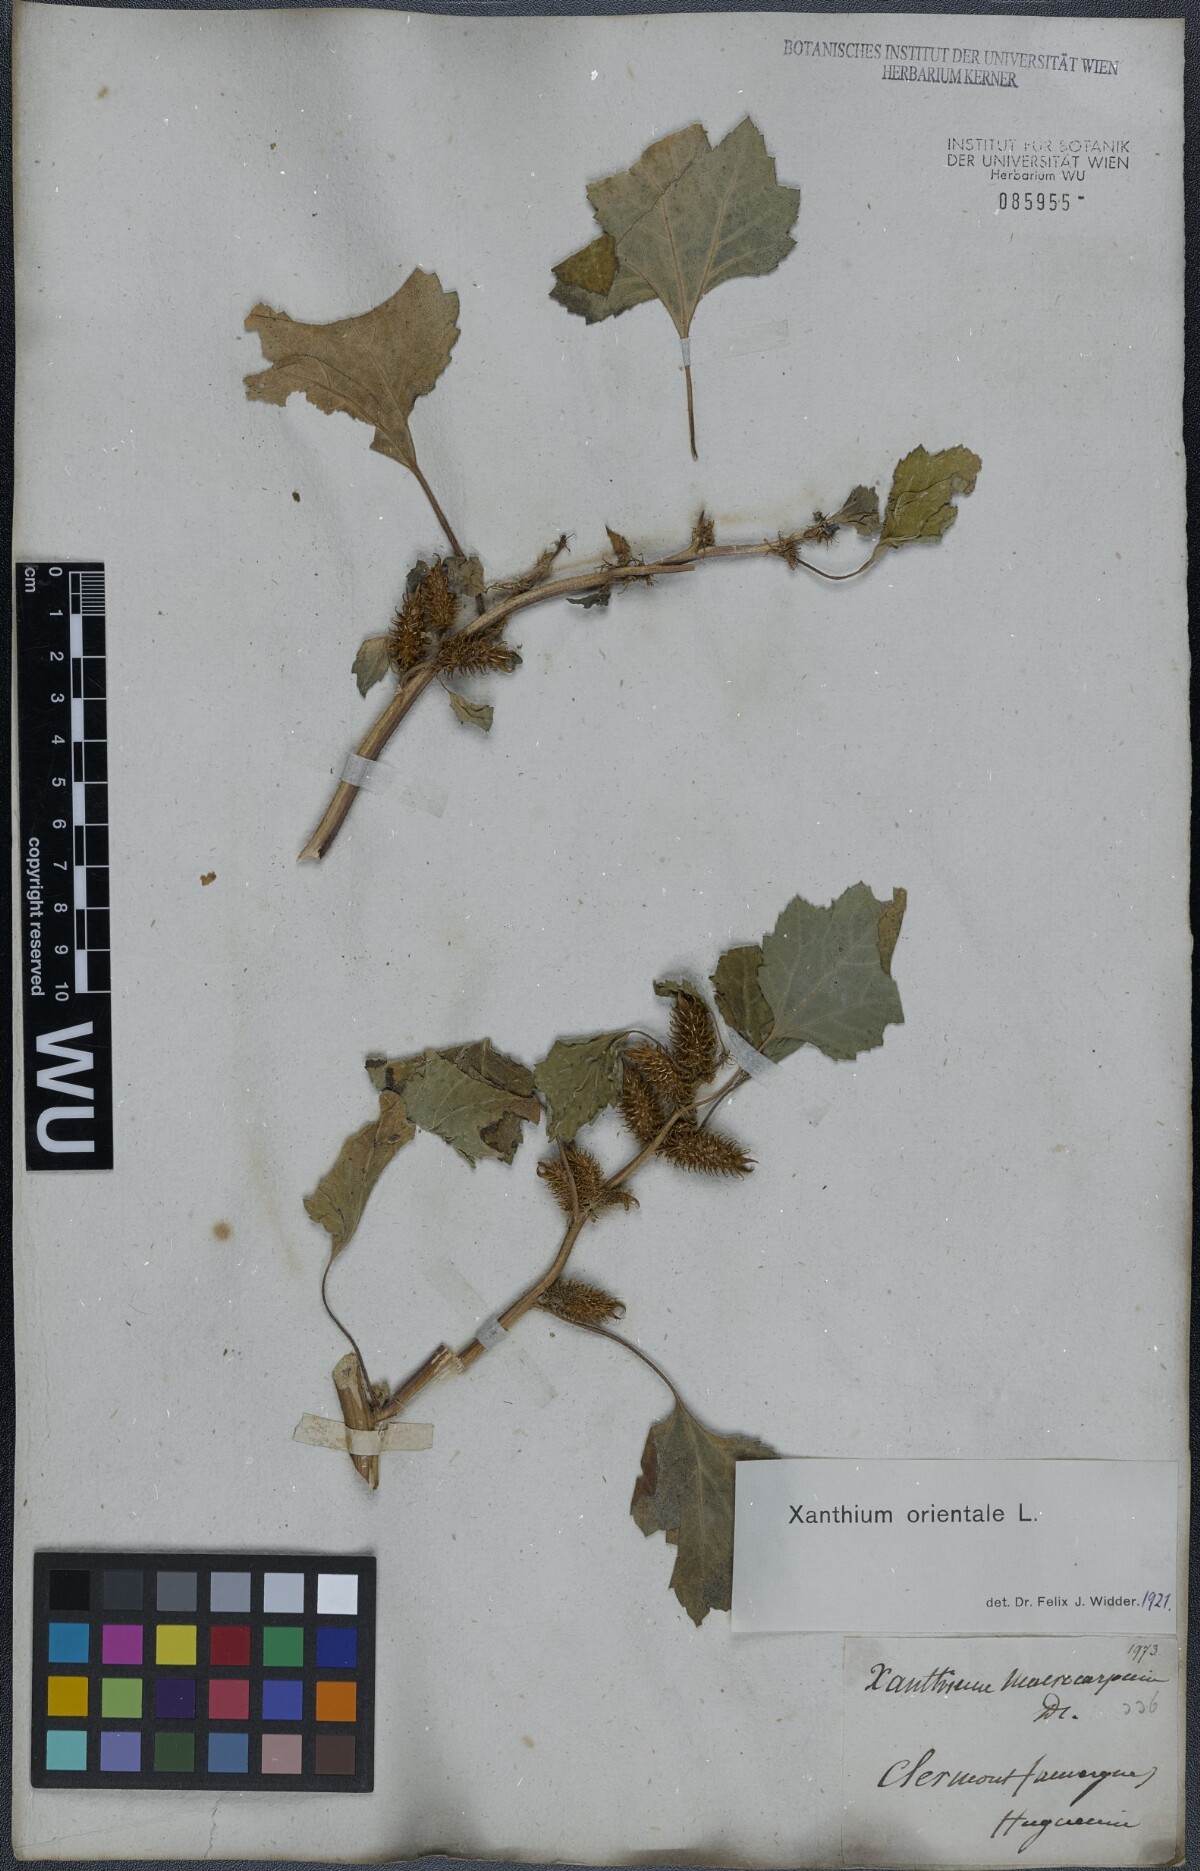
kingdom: Plantae
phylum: Tracheophyta
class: Magnoliopsida
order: Asterales
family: Asteraceae
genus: Xanthium
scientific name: Xanthium orientale
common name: Californian burr
